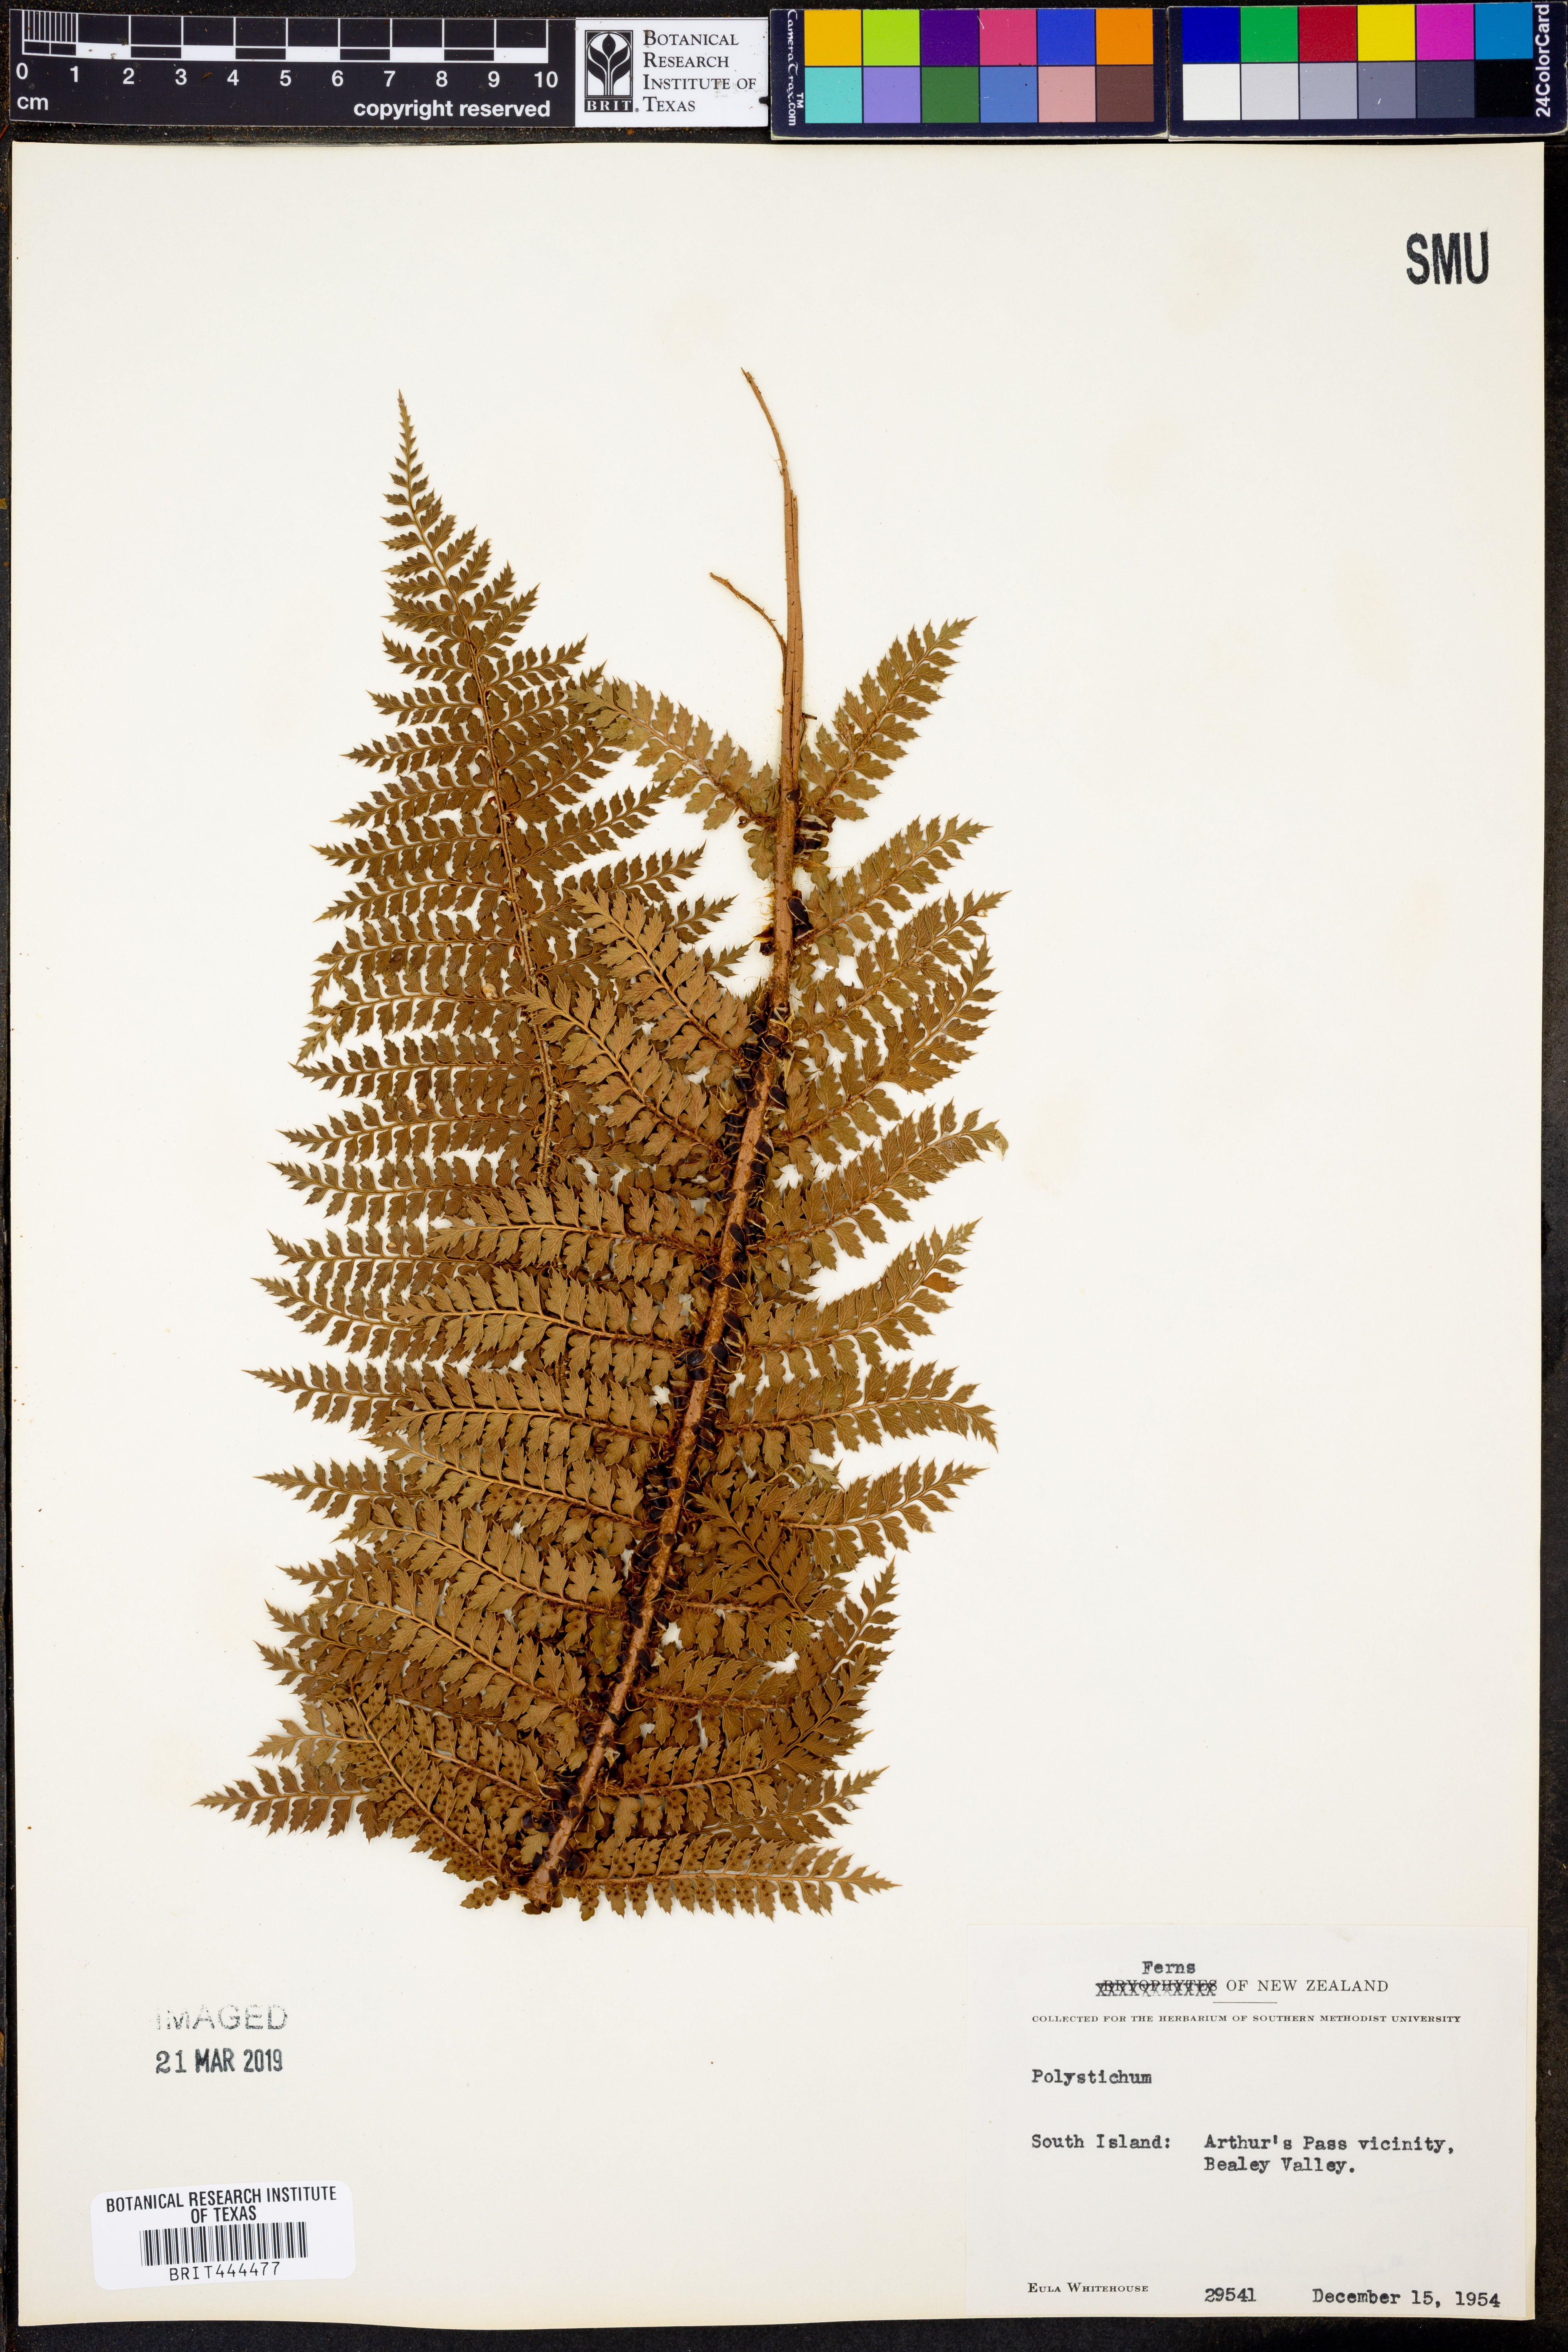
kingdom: Plantae
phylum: Tracheophyta
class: Polypodiopsida
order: Polypodiales
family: Dryopteridaceae
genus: Polystichum
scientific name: Polystichum
